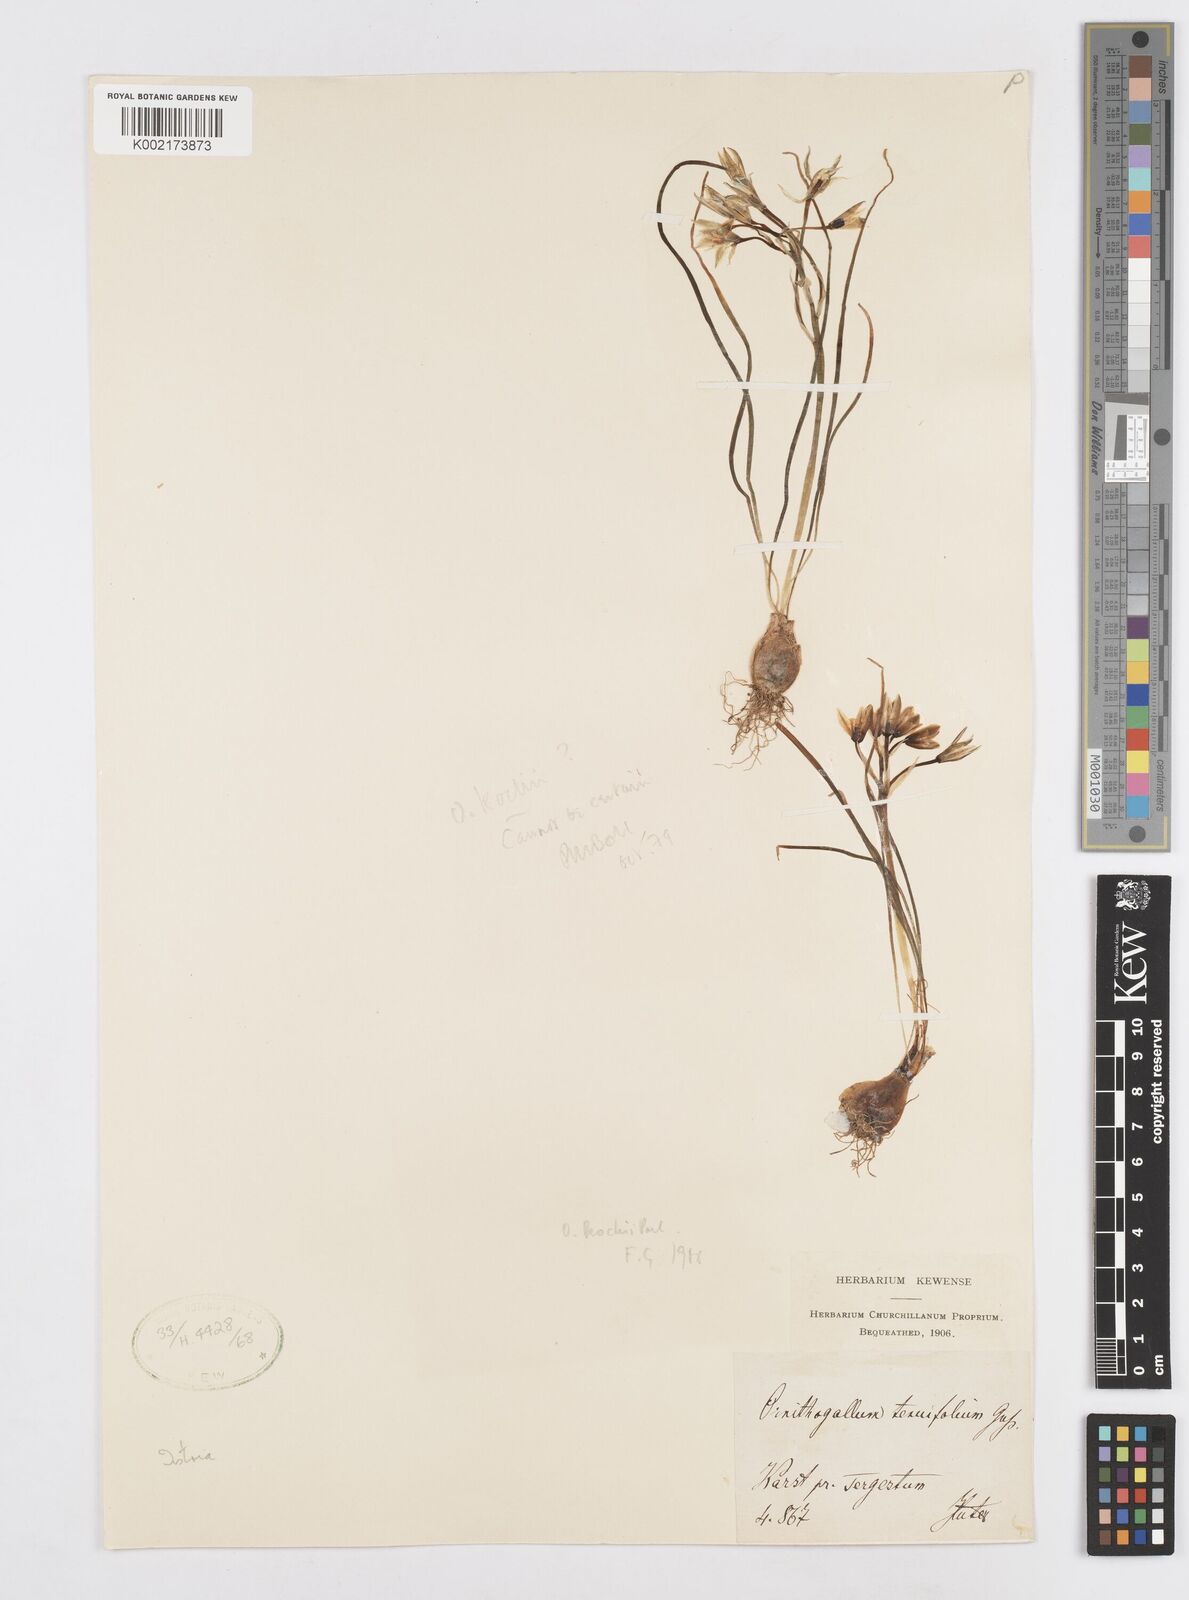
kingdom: Plantae
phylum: Tracheophyta
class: Liliopsida
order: Asparagales
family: Asparagaceae
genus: Ornithogalum
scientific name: Ornithogalum orthophyllum
